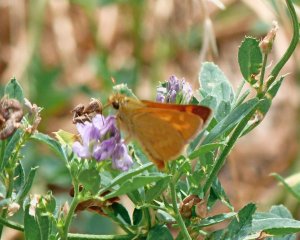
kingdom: Animalia
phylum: Arthropoda
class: Insecta
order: Lepidoptera
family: Hesperiidae
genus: Ochlodes
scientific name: Ochlodes sylvanoides
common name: Woodland Skipper
